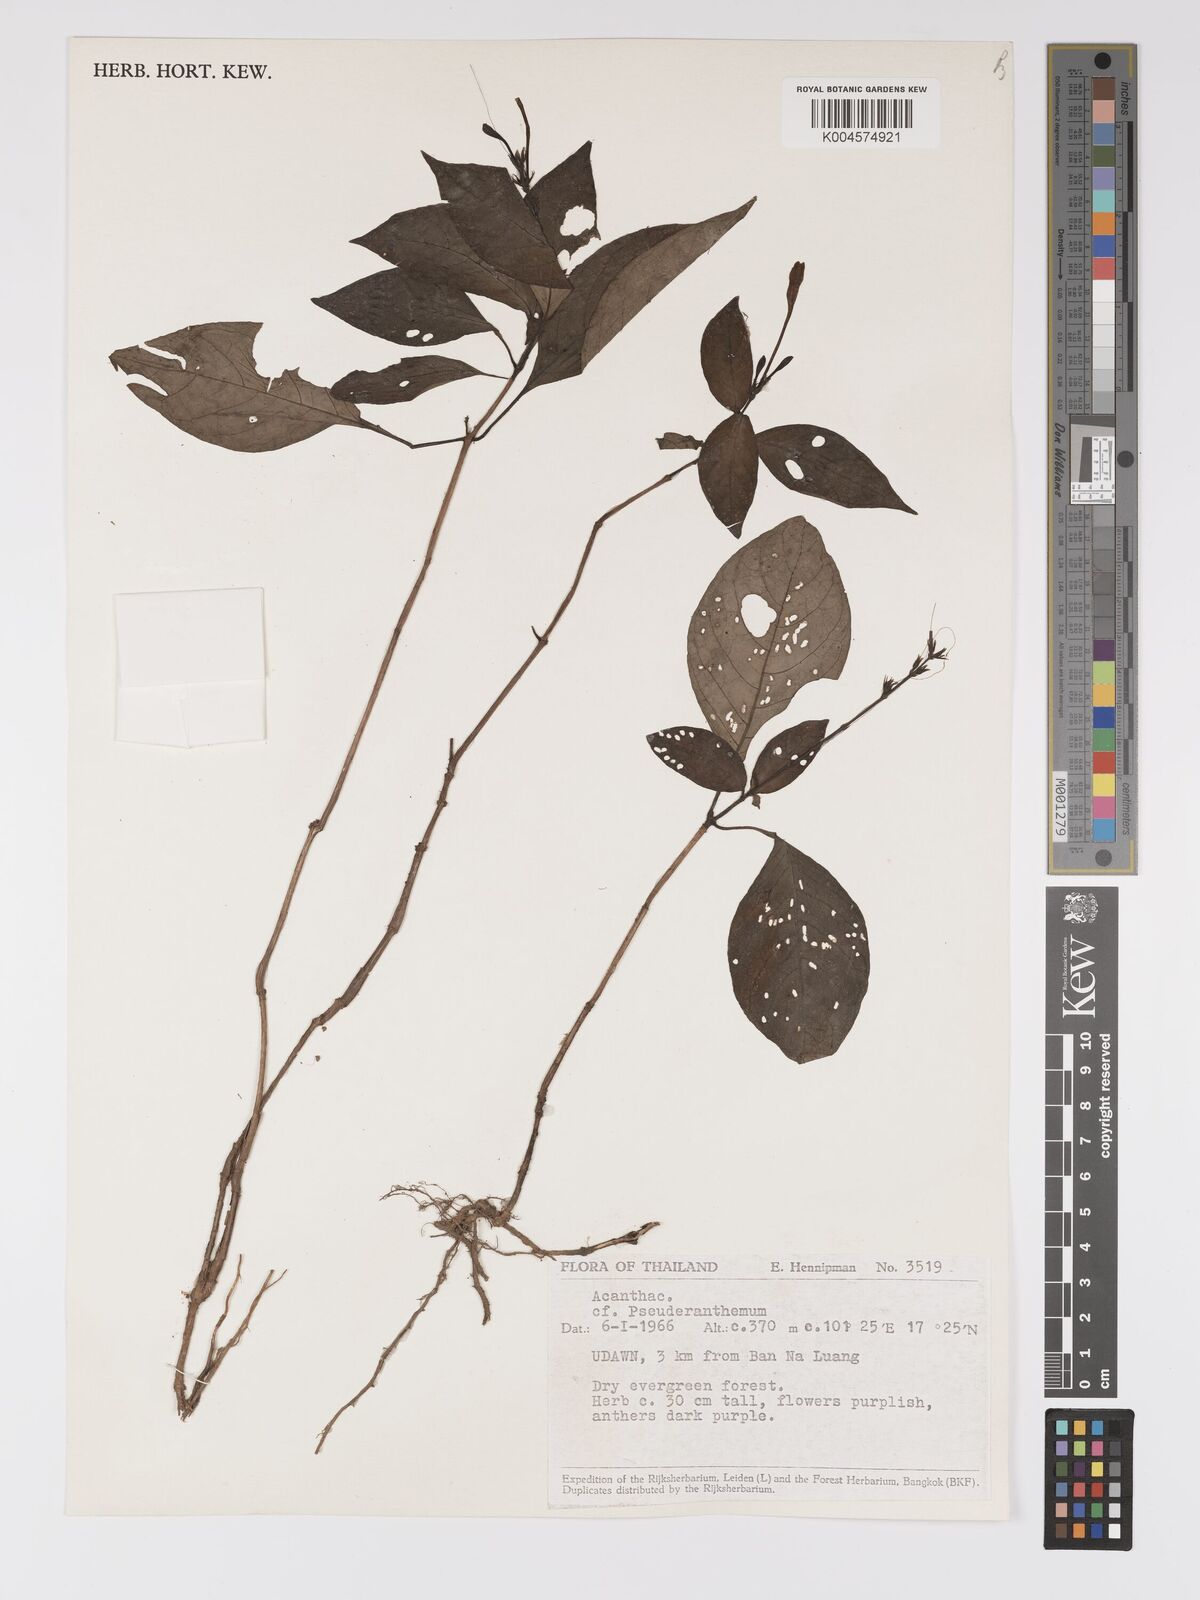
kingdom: Plantae
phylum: Tracheophyta
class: Magnoliopsida
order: Lamiales
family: Acanthaceae
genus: Pseuderanthemum
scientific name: Pseuderanthemum
